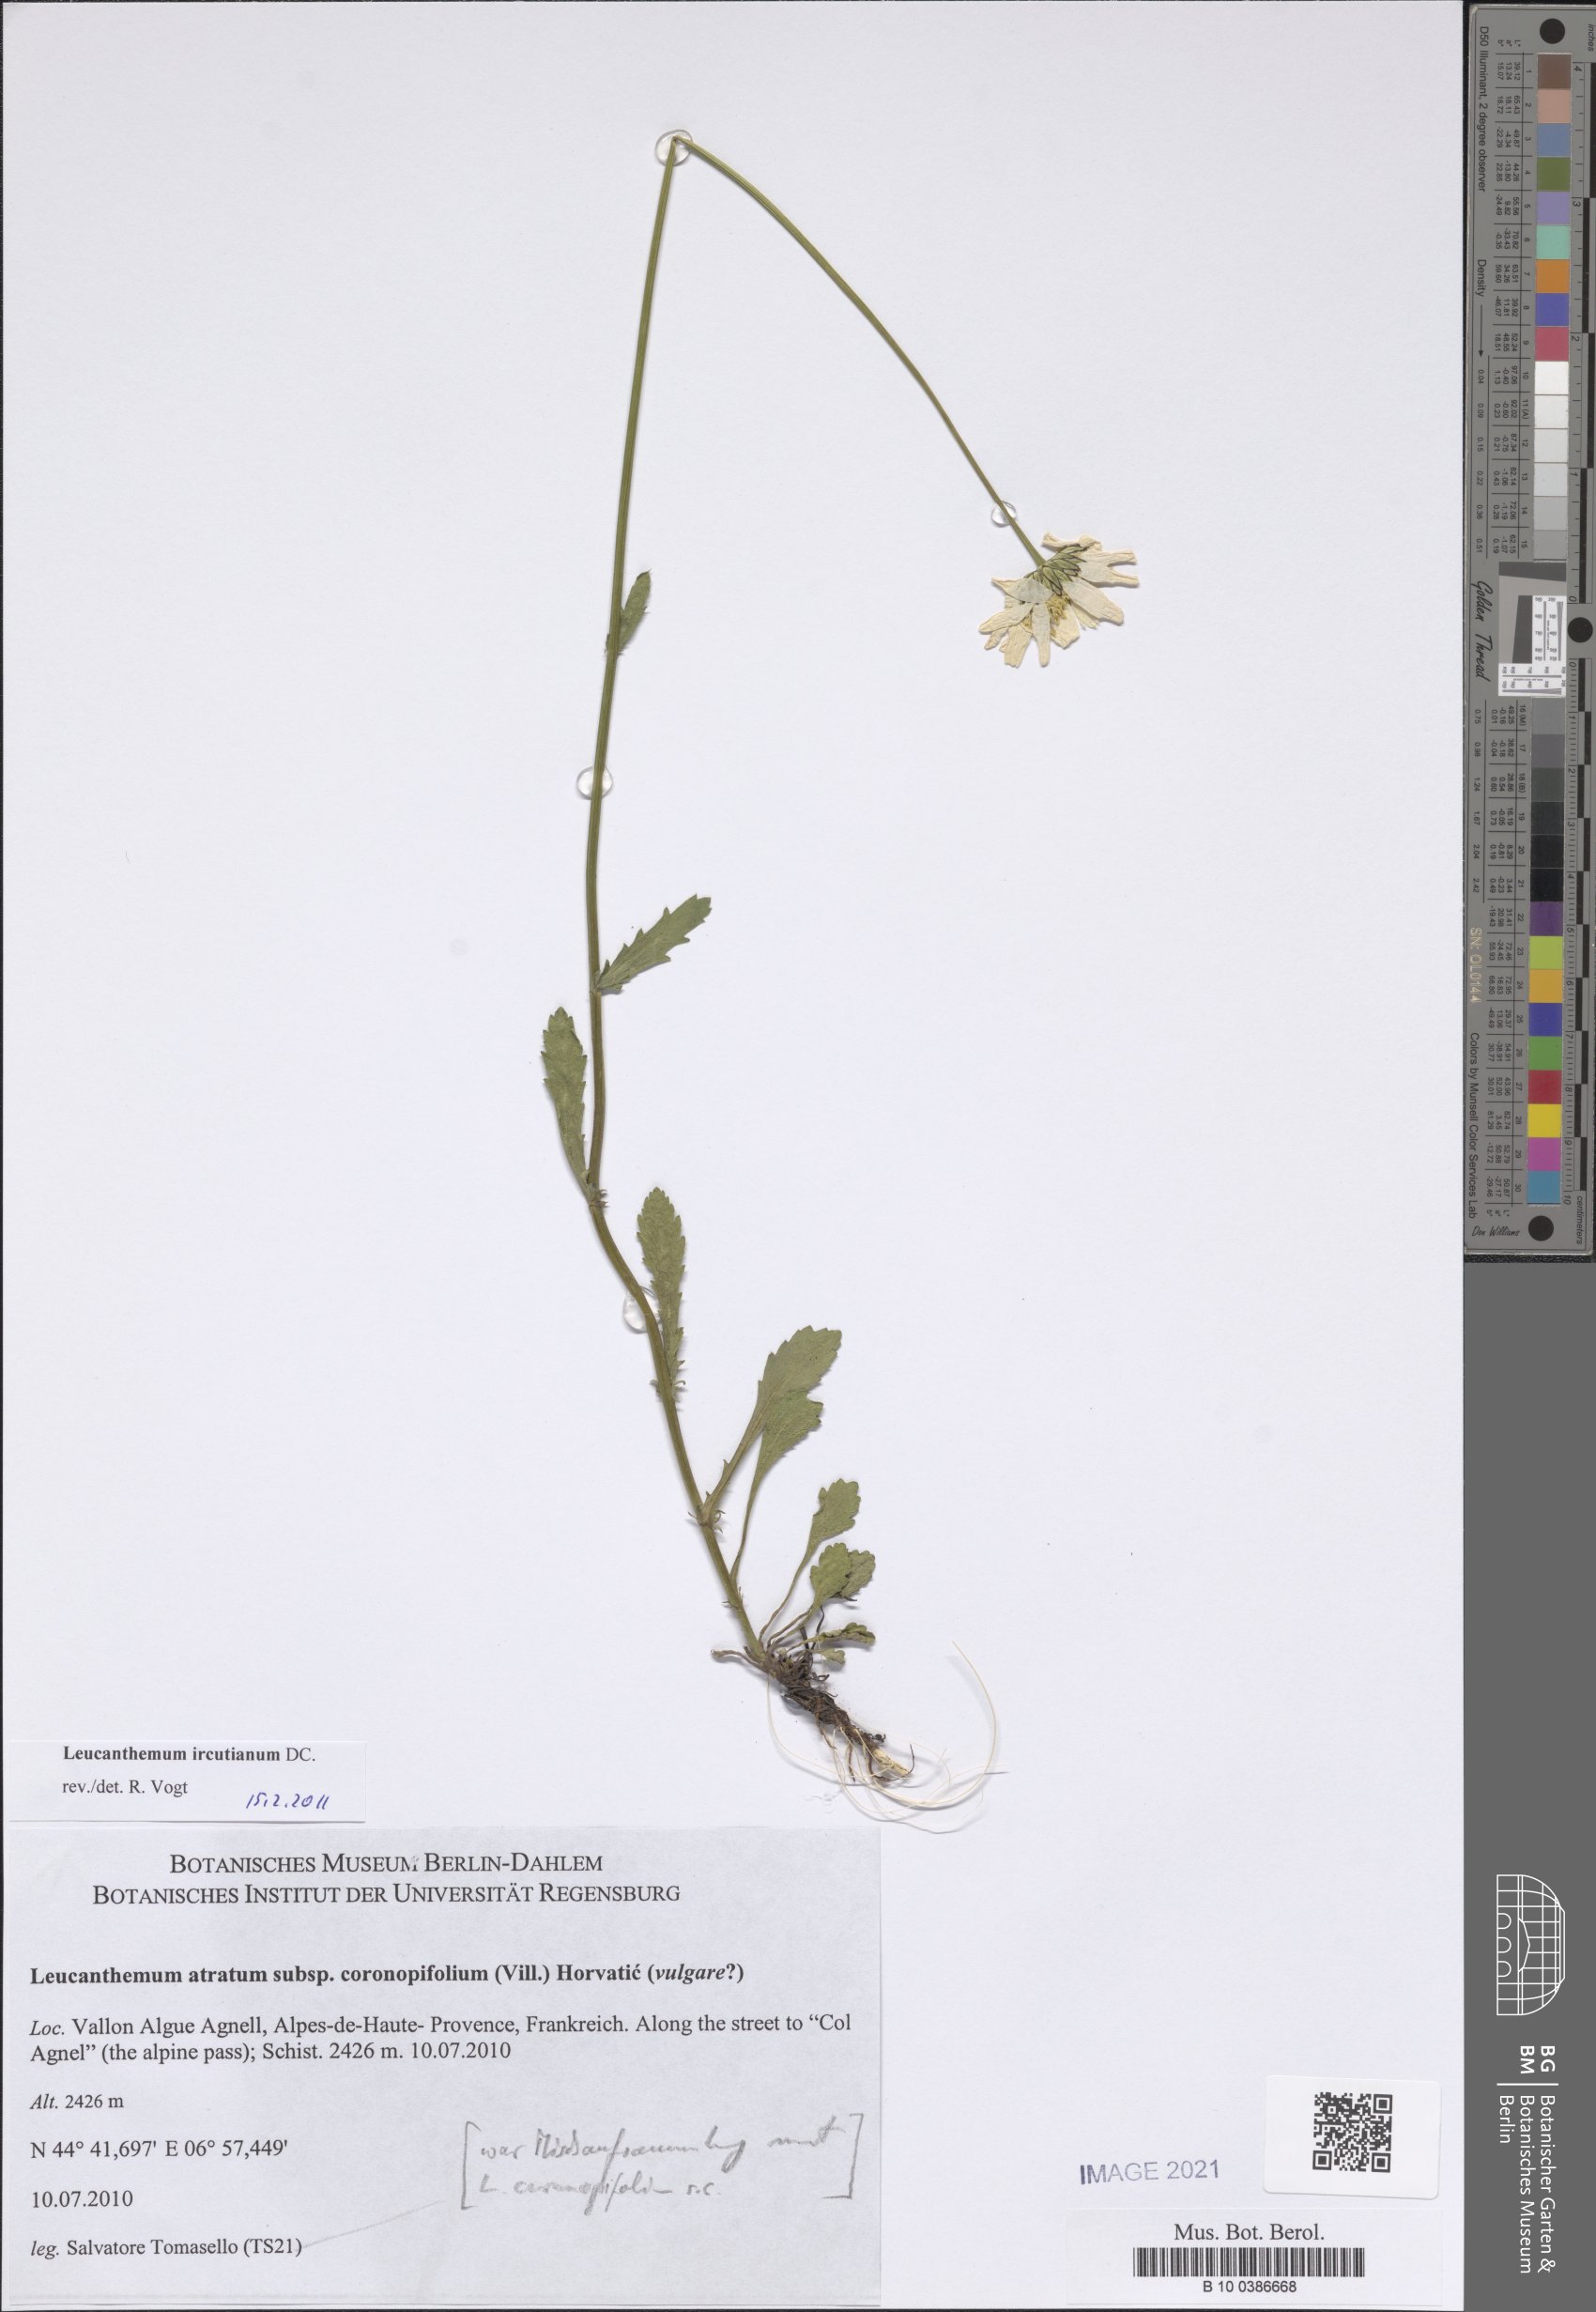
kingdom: Plantae
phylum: Tracheophyta
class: Magnoliopsida
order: Asterales
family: Asteraceae
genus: Leucanthemum
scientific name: Leucanthemum ircutianum
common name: Daisy
